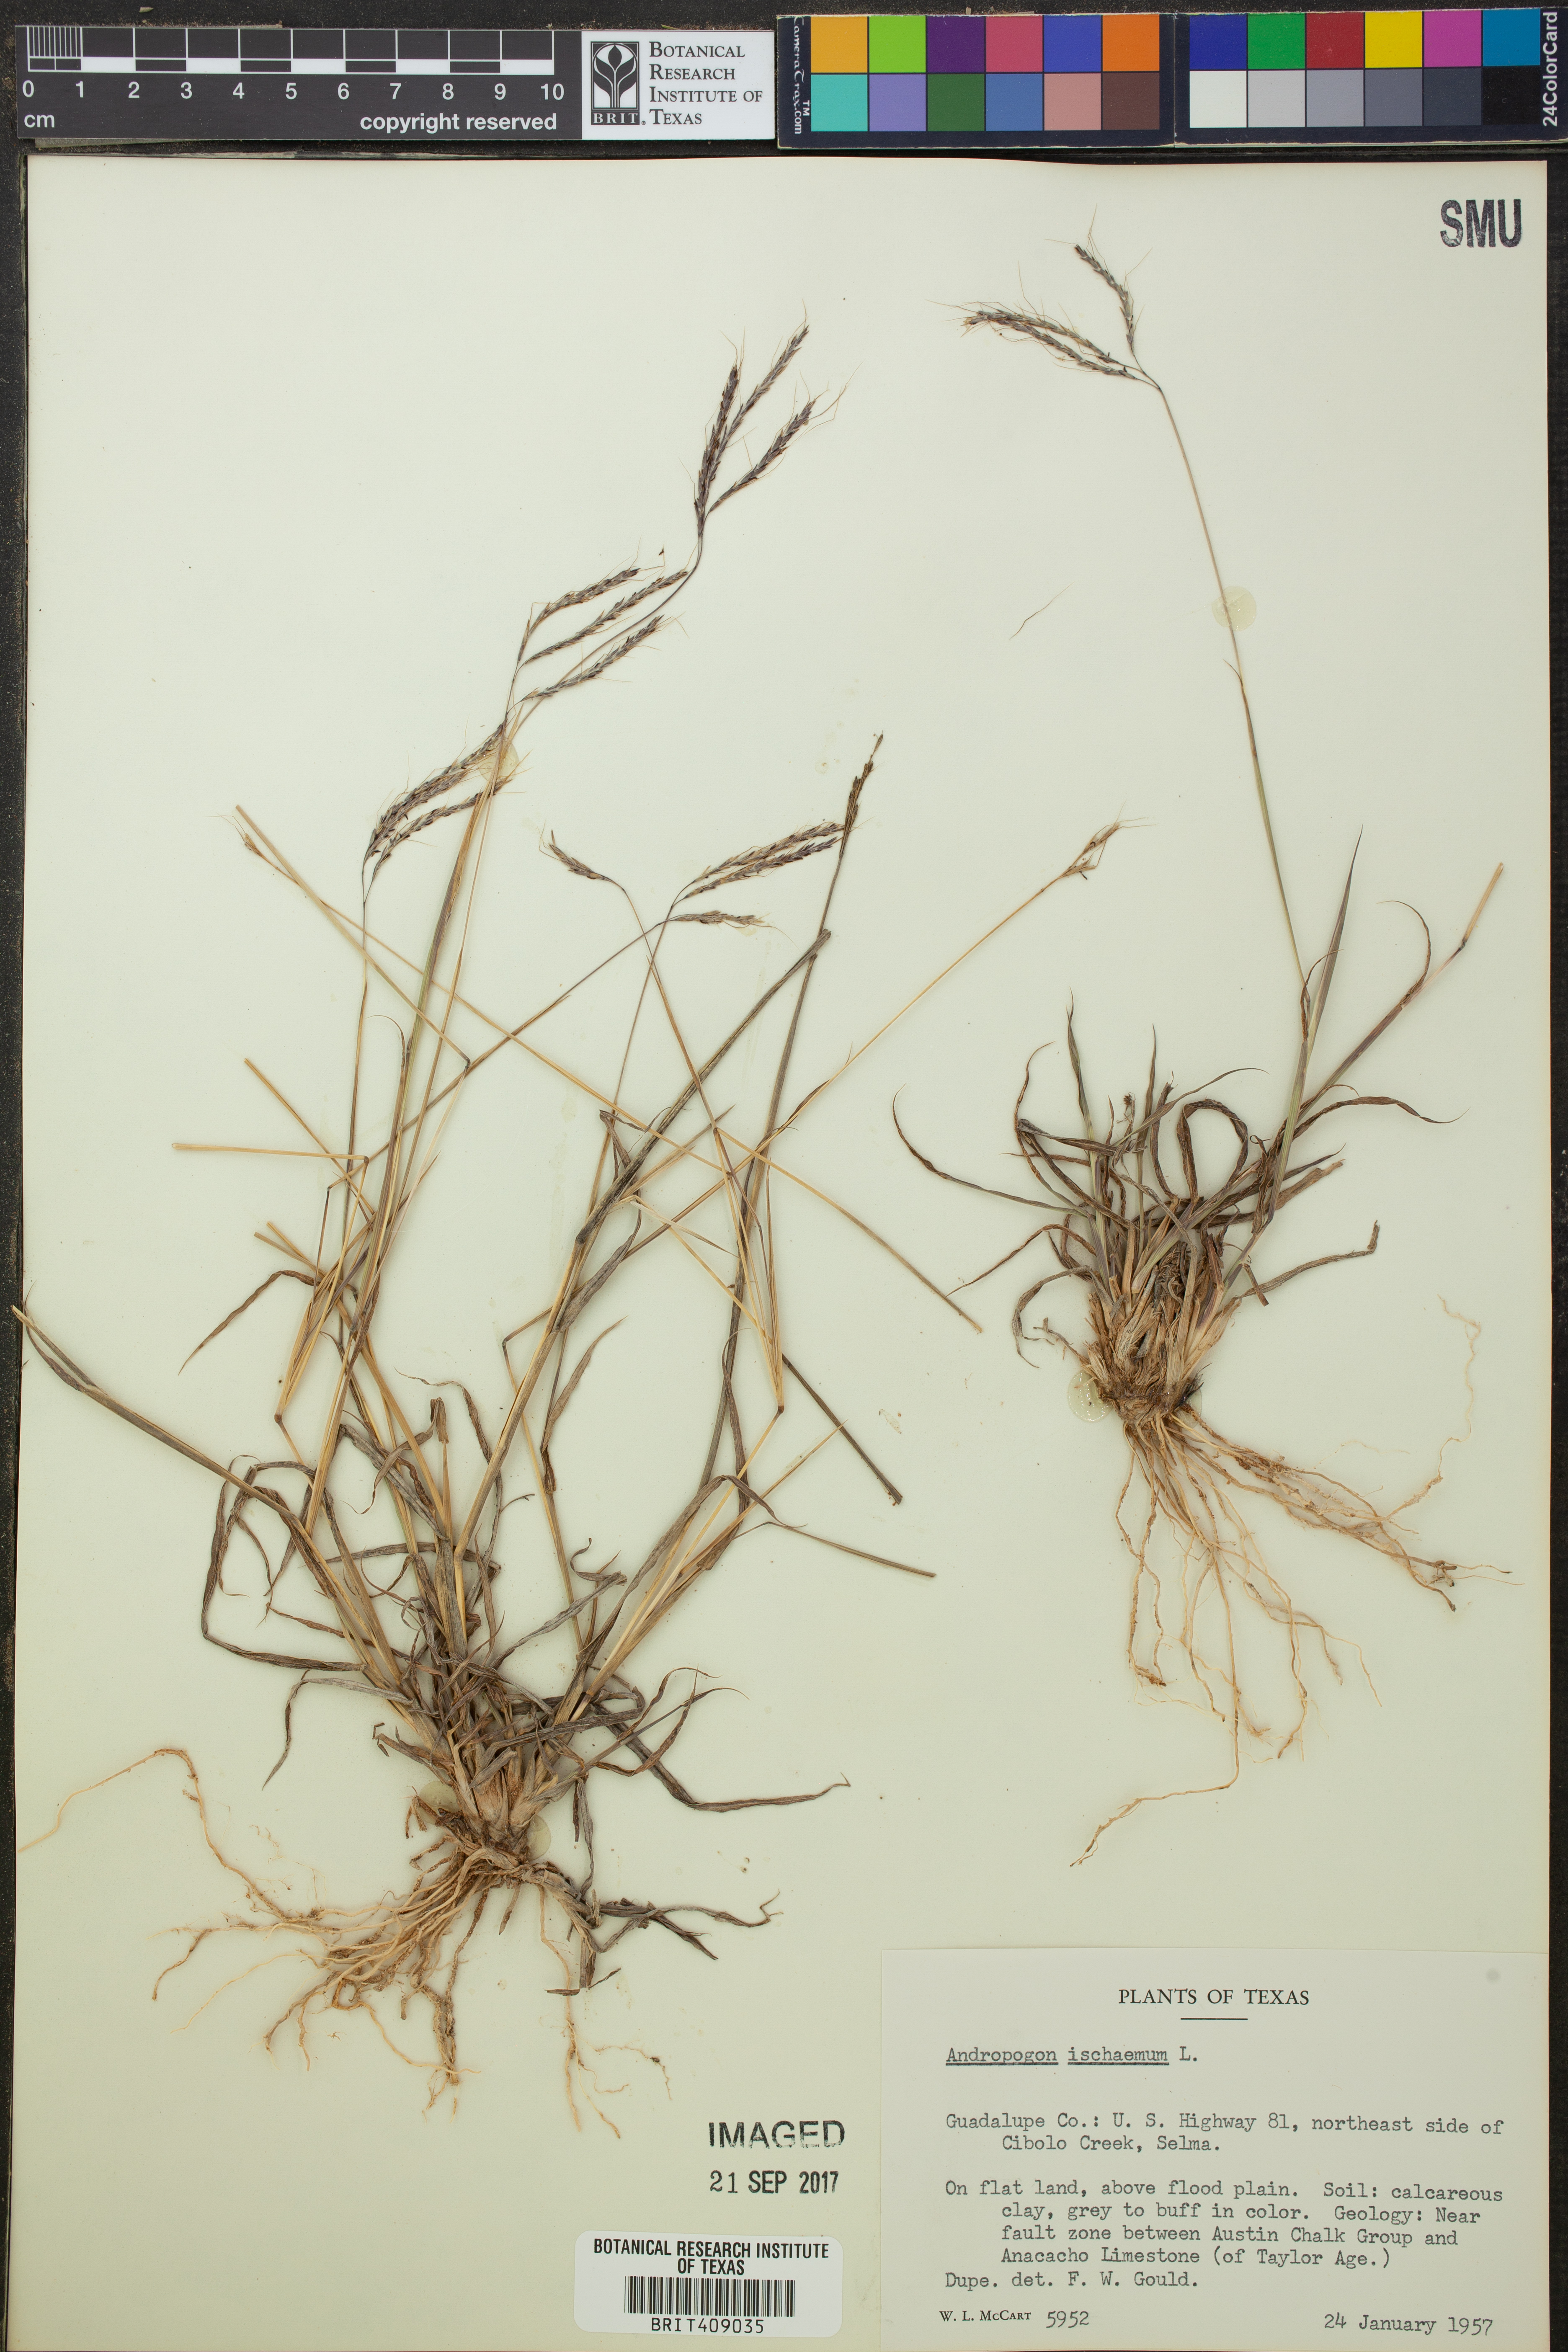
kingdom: Plantae
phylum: Tracheophyta
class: Liliopsida
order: Poales
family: Poaceae
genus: Andropogon
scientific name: Andropogon ischaemum
